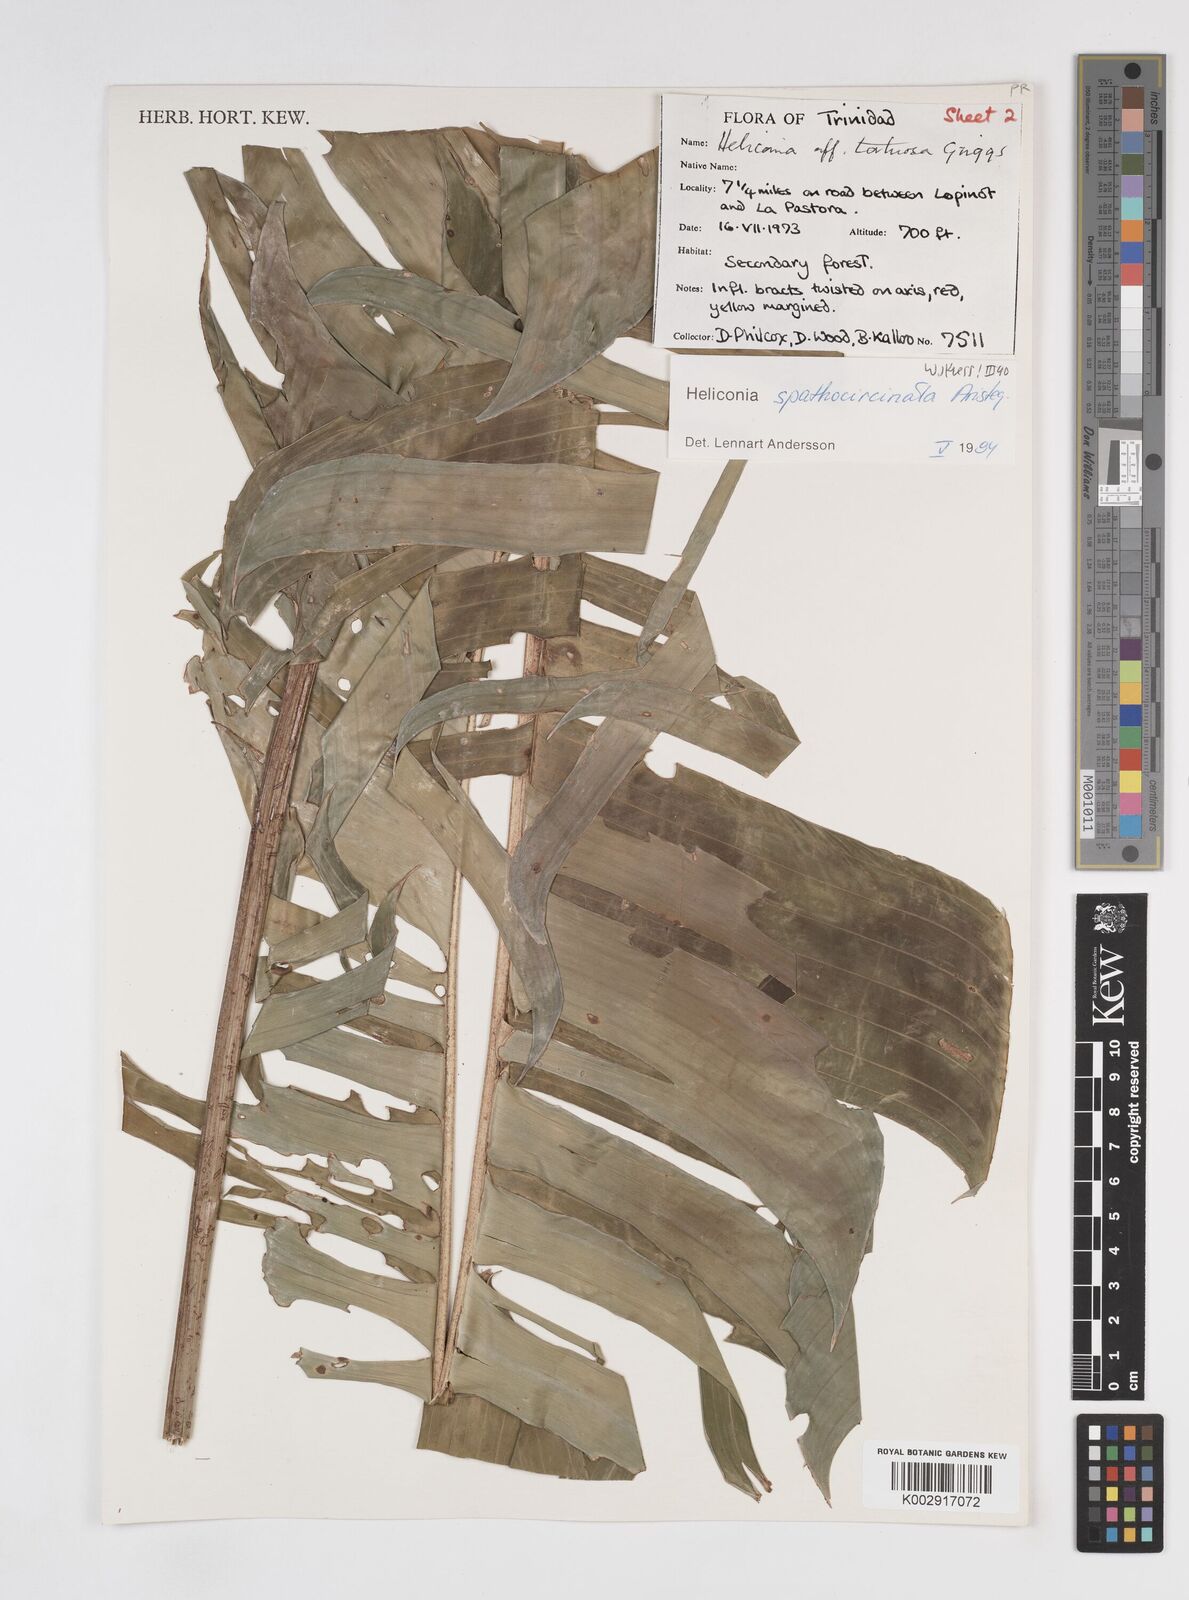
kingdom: Plantae
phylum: Tracheophyta
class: Liliopsida
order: Zingiberales
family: Heliconiaceae
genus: Heliconia
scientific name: Heliconia spathocircinata
